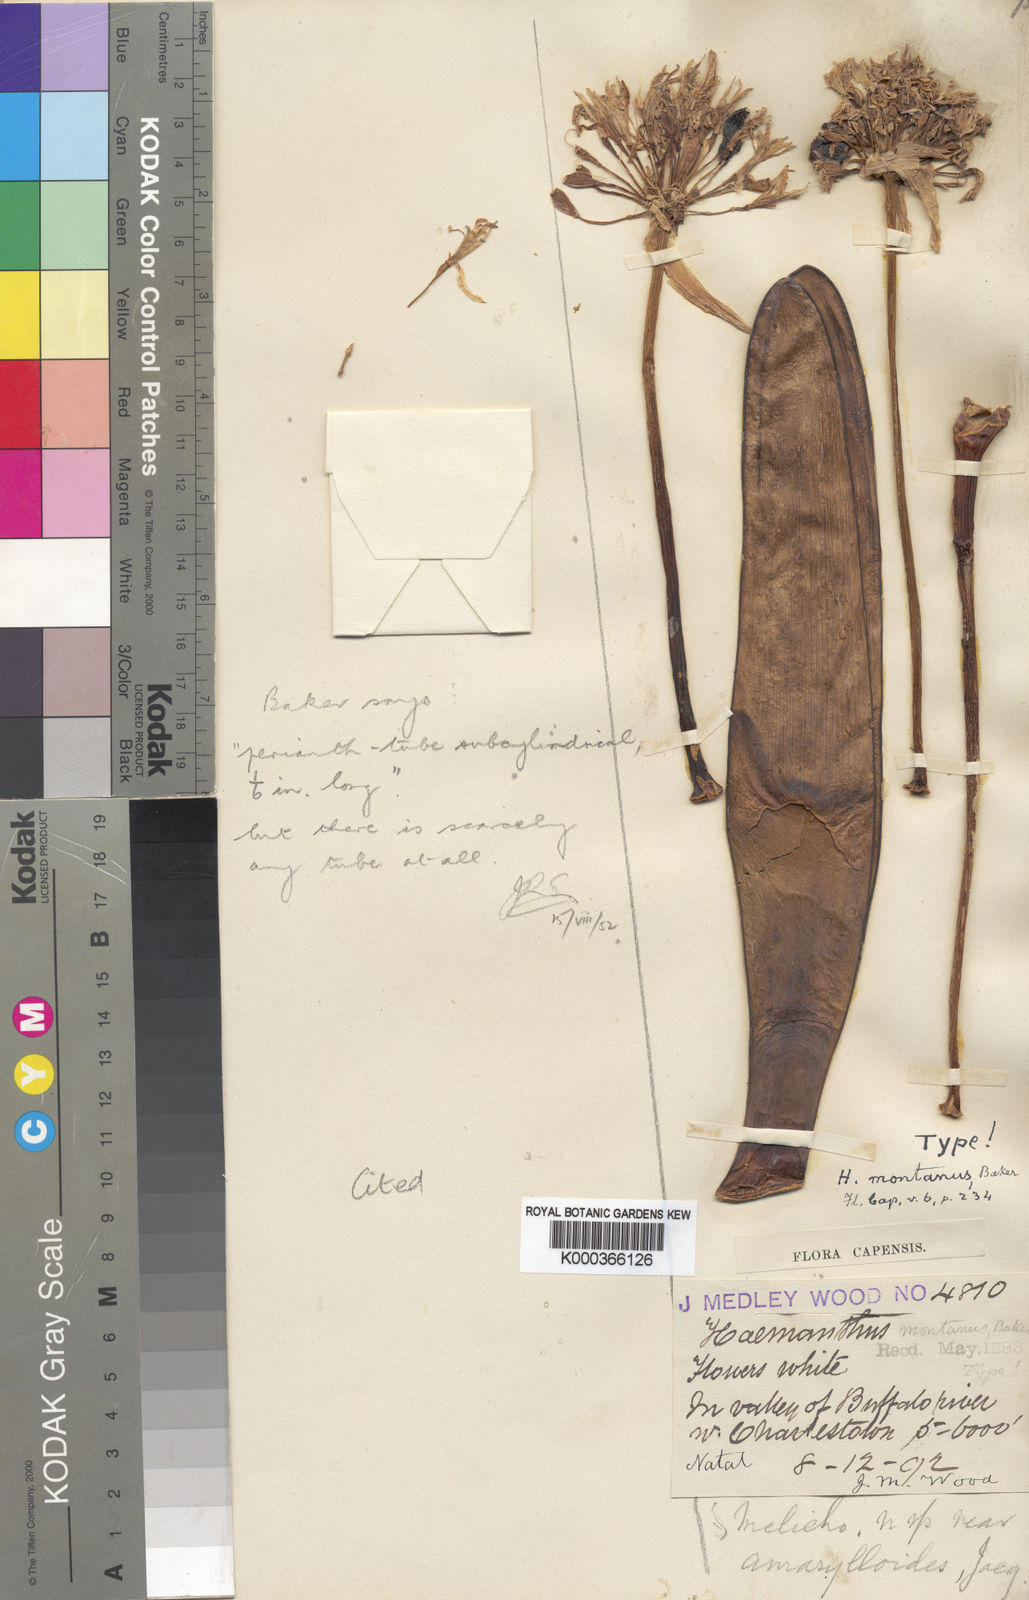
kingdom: Plantae
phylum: Tracheophyta
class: Liliopsida
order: Asparagales
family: Amaryllidaceae
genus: Haemanthus
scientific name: Haemanthus montanus
